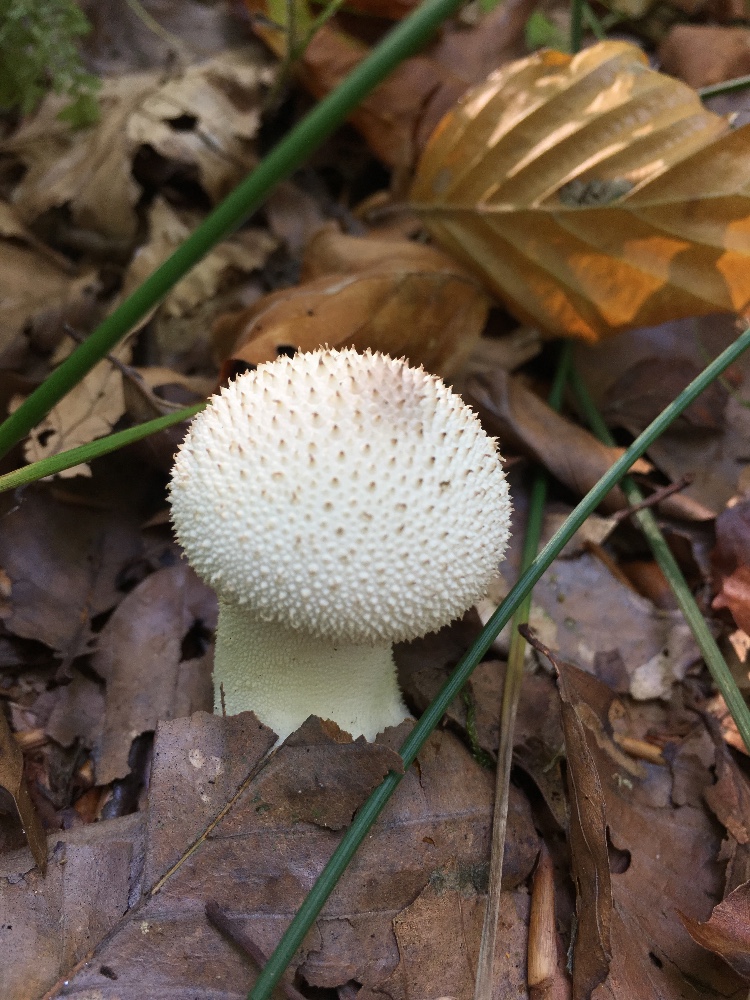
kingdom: Fungi
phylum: Basidiomycota
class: Agaricomycetes
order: Agaricales
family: Lycoperdaceae
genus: Lycoperdon
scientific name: Lycoperdon perlatum
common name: krystal-støvbold
